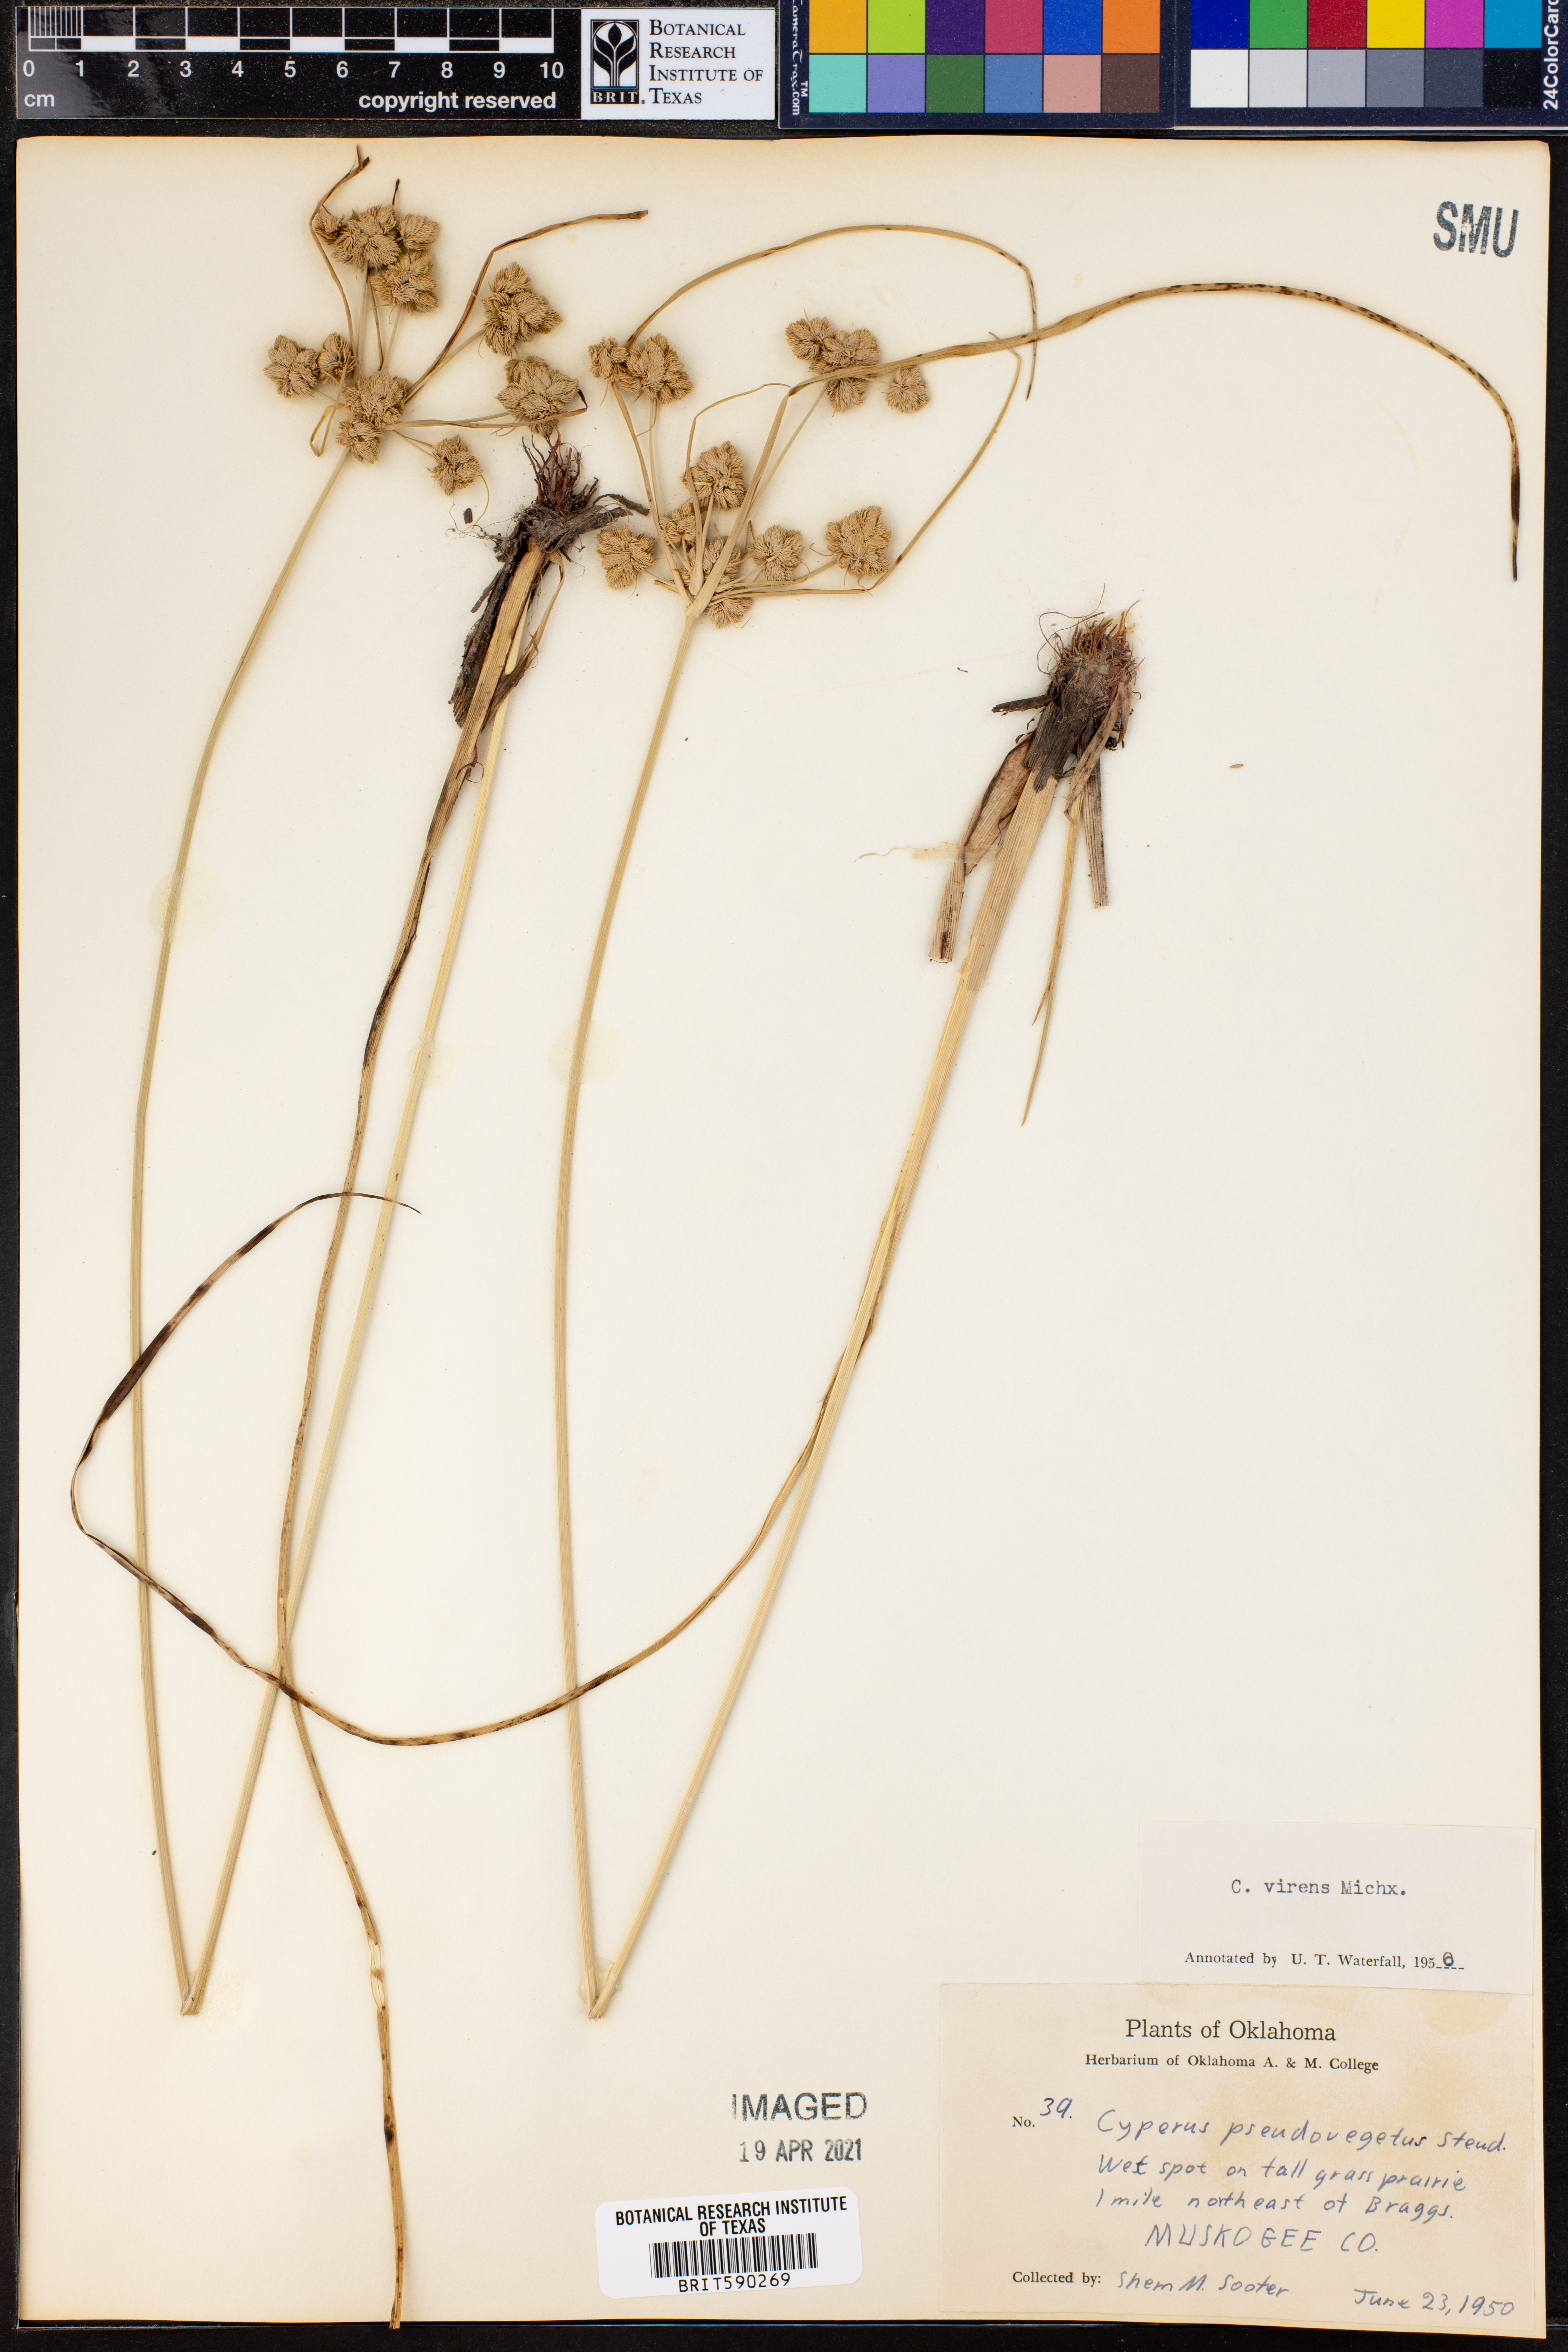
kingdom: Plantae
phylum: Tracheophyta
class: Liliopsida
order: Poales
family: Cyperaceae
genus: Cyperus
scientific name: Cyperus virens
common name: Green flatsedge
